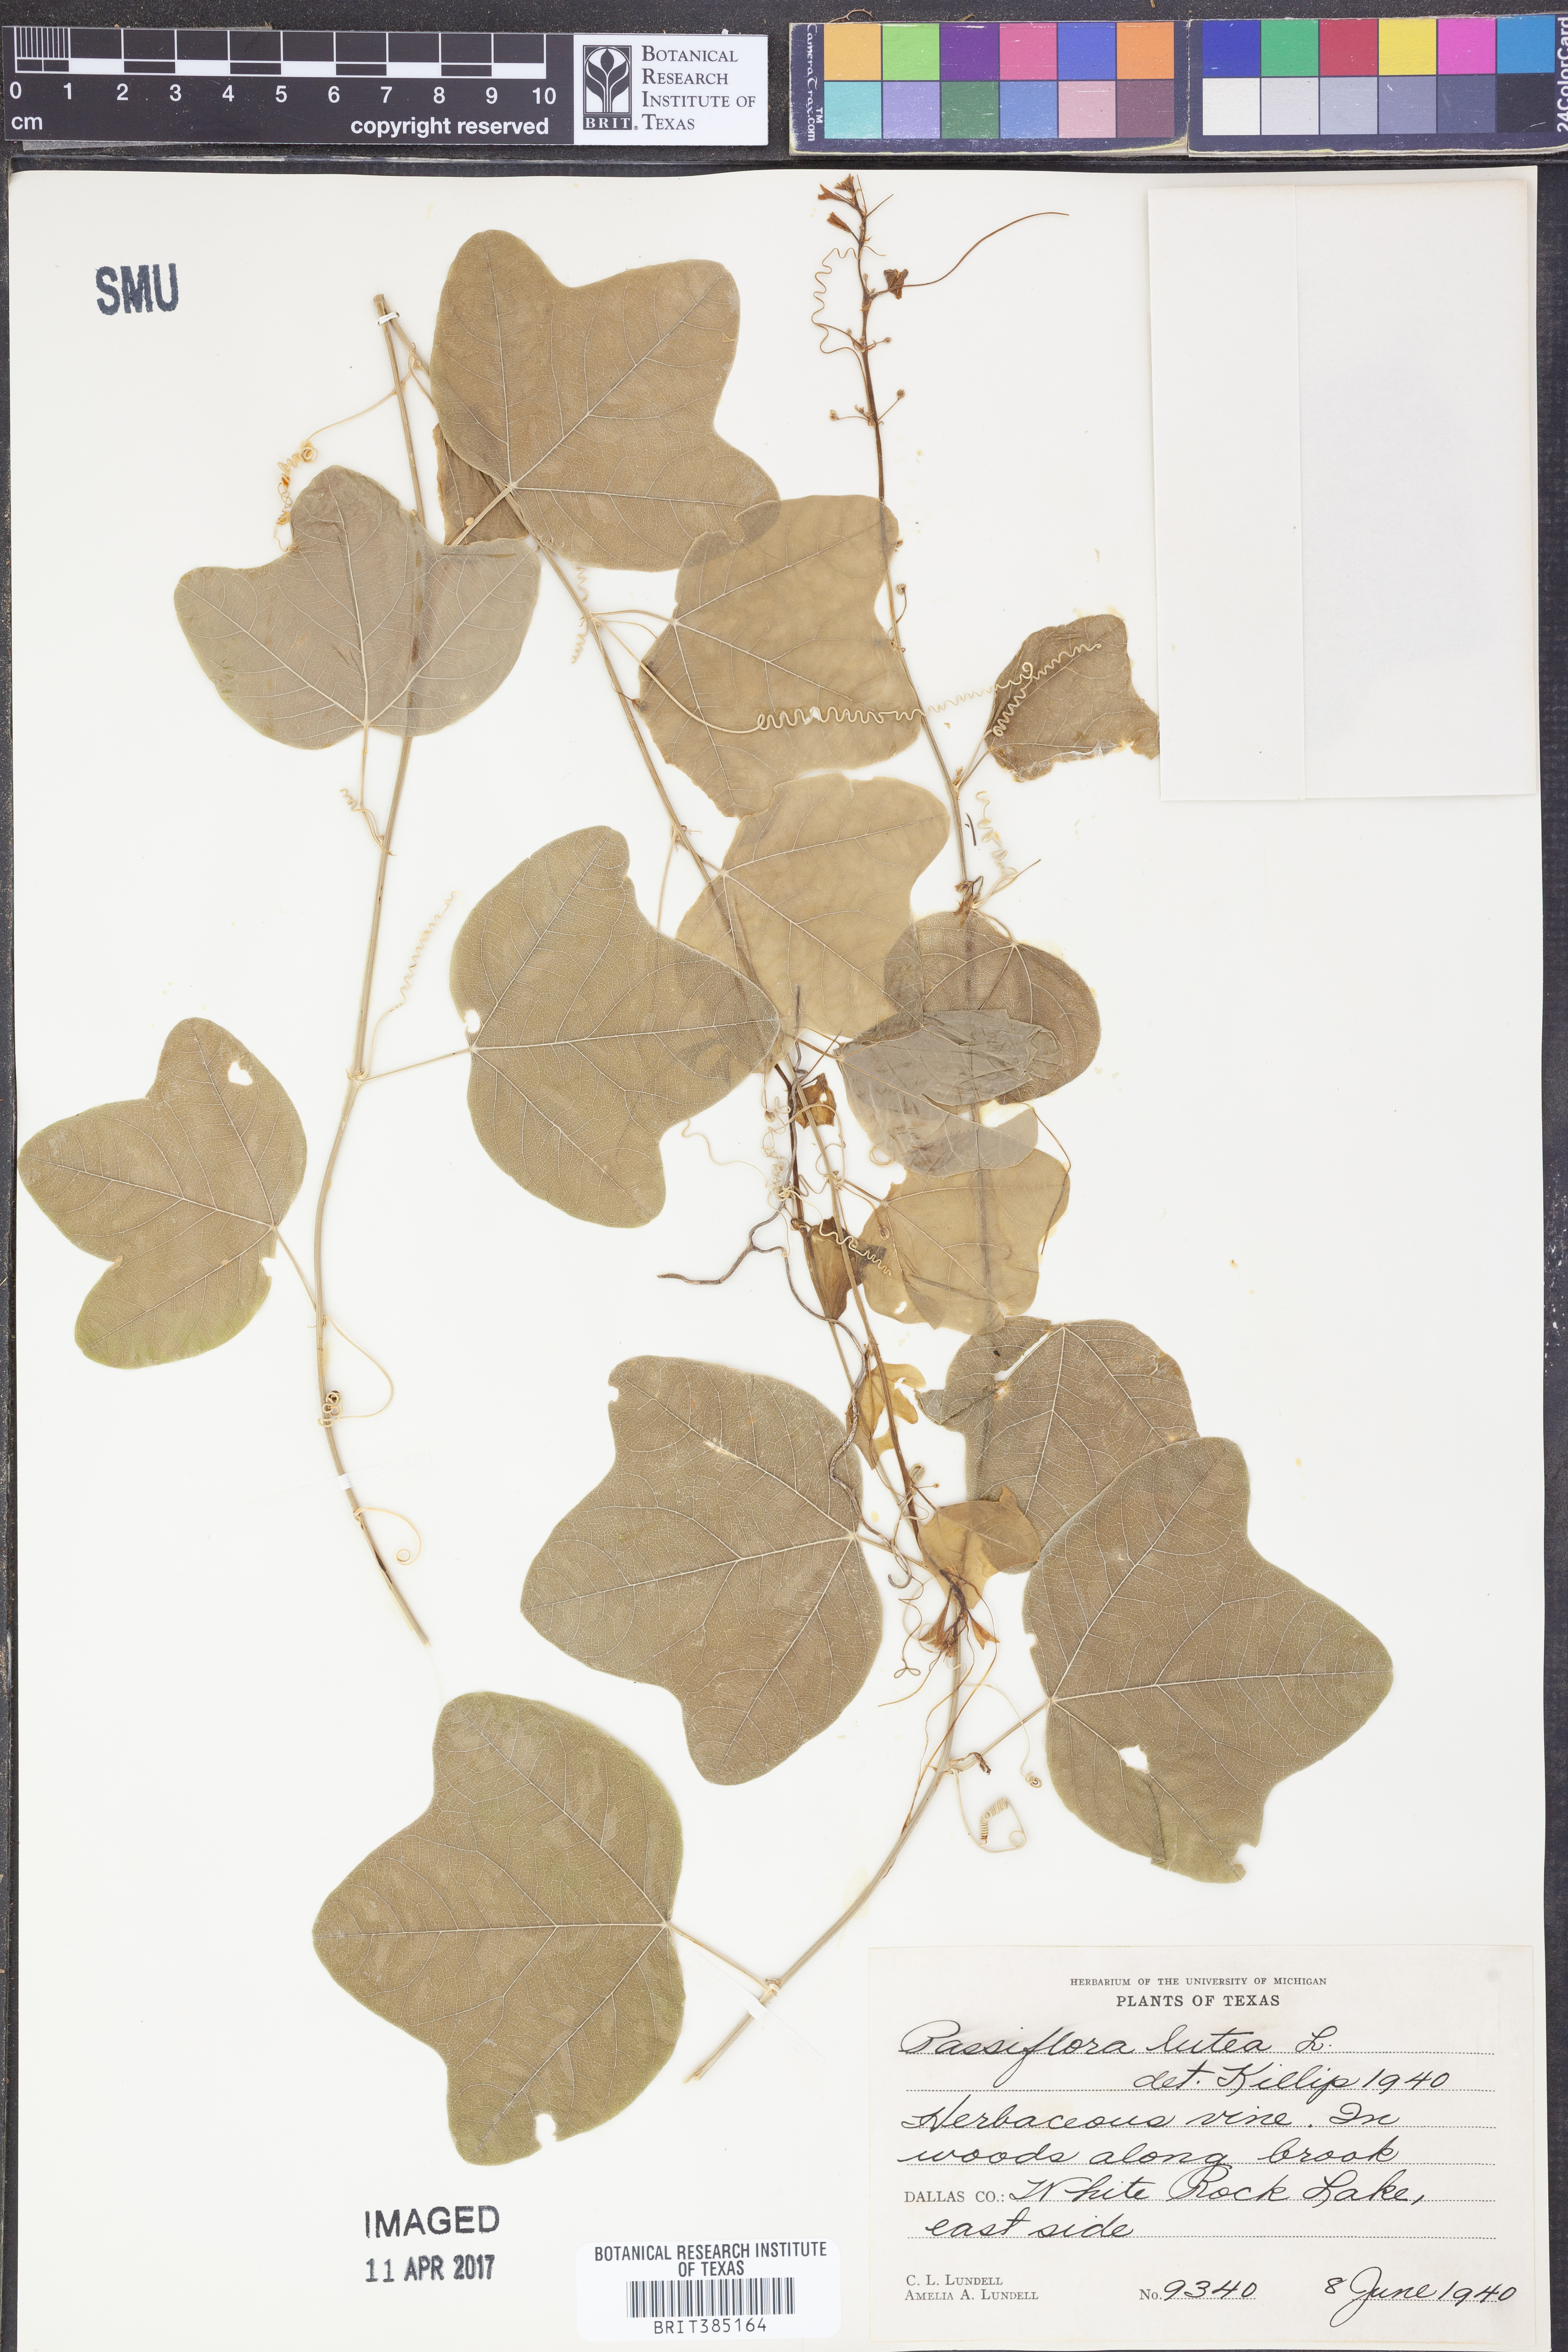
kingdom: Plantae
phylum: Tracheophyta
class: Magnoliopsida
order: Malpighiales
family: Passifloraceae
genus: Passiflora
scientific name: Passiflora lutea
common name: Yellow passionflower
